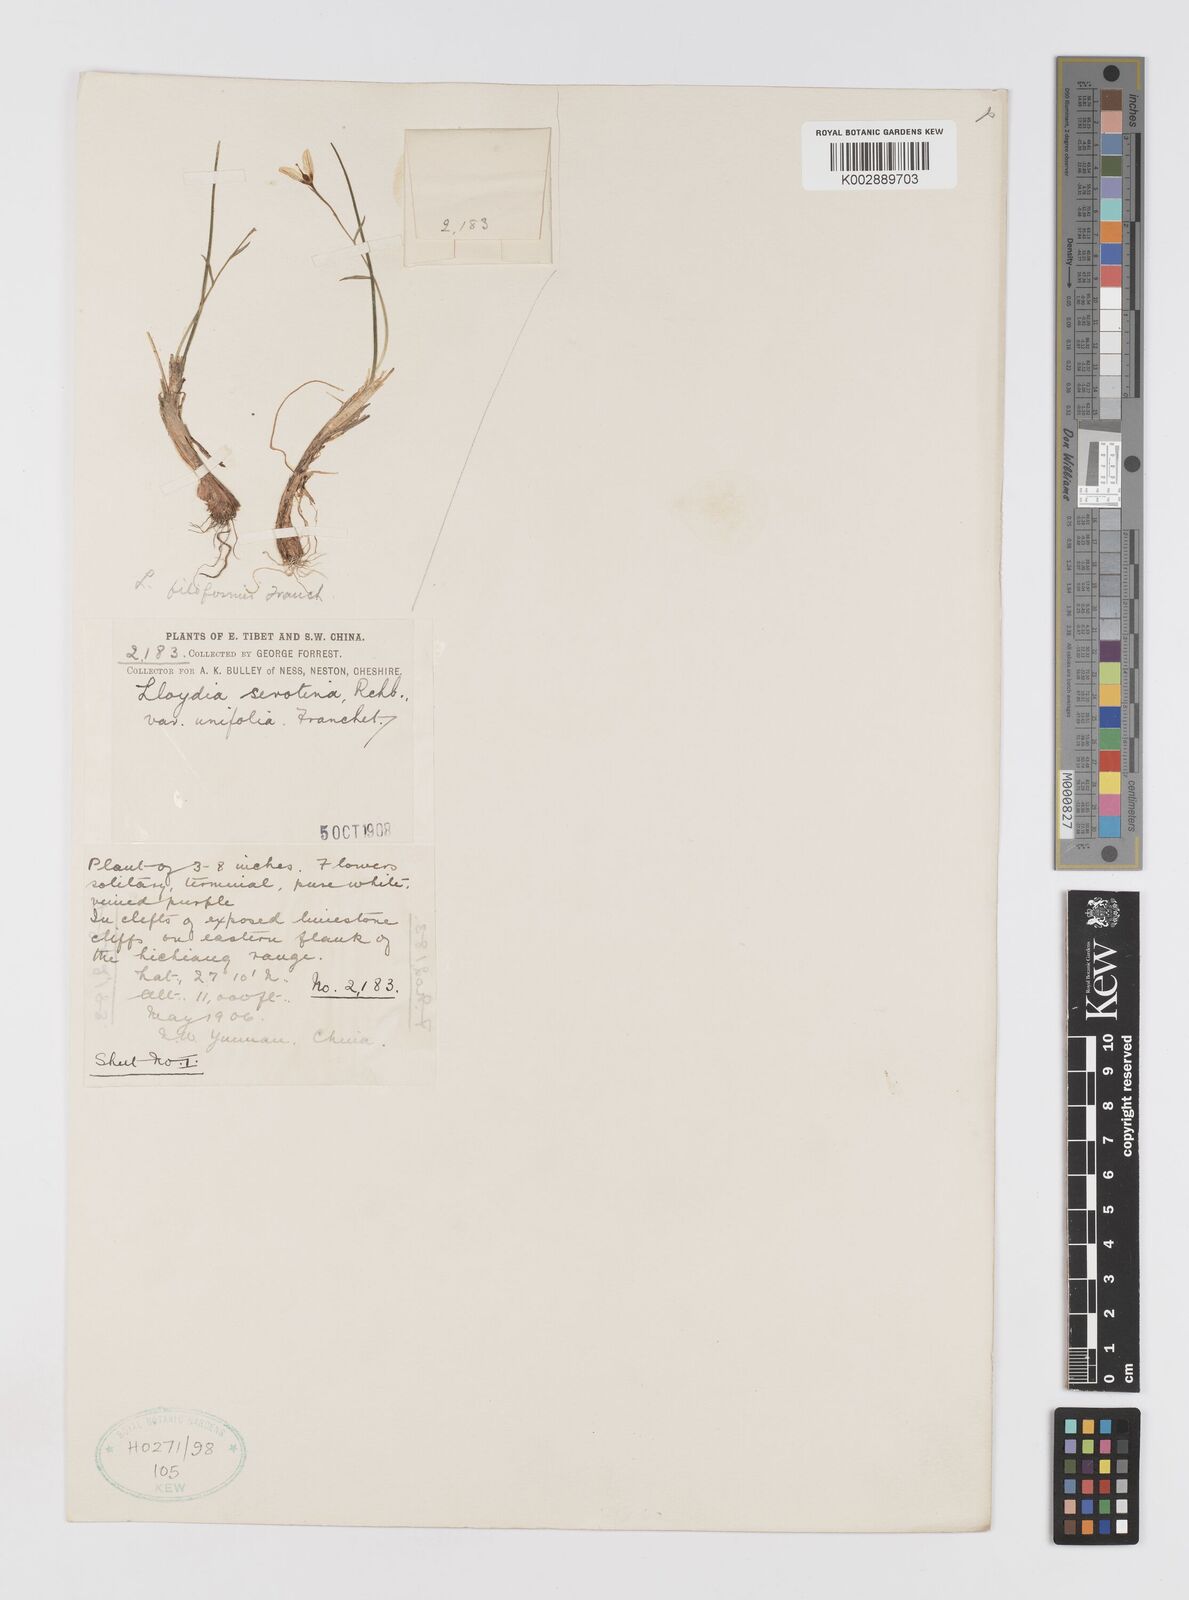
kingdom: Plantae
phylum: Tracheophyta
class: Liliopsida
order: Liliales
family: Liliaceae
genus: Gagea
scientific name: Gagea serotina
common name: Snowdon lily
